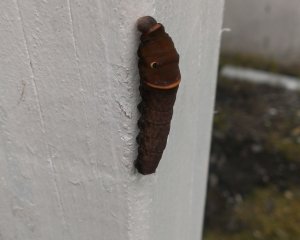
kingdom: Animalia
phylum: Arthropoda
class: Insecta
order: Lepidoptera
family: Papilionidae
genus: Pterourus
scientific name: Pterourus canadensis
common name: Canadian Tiger Swallowtail
